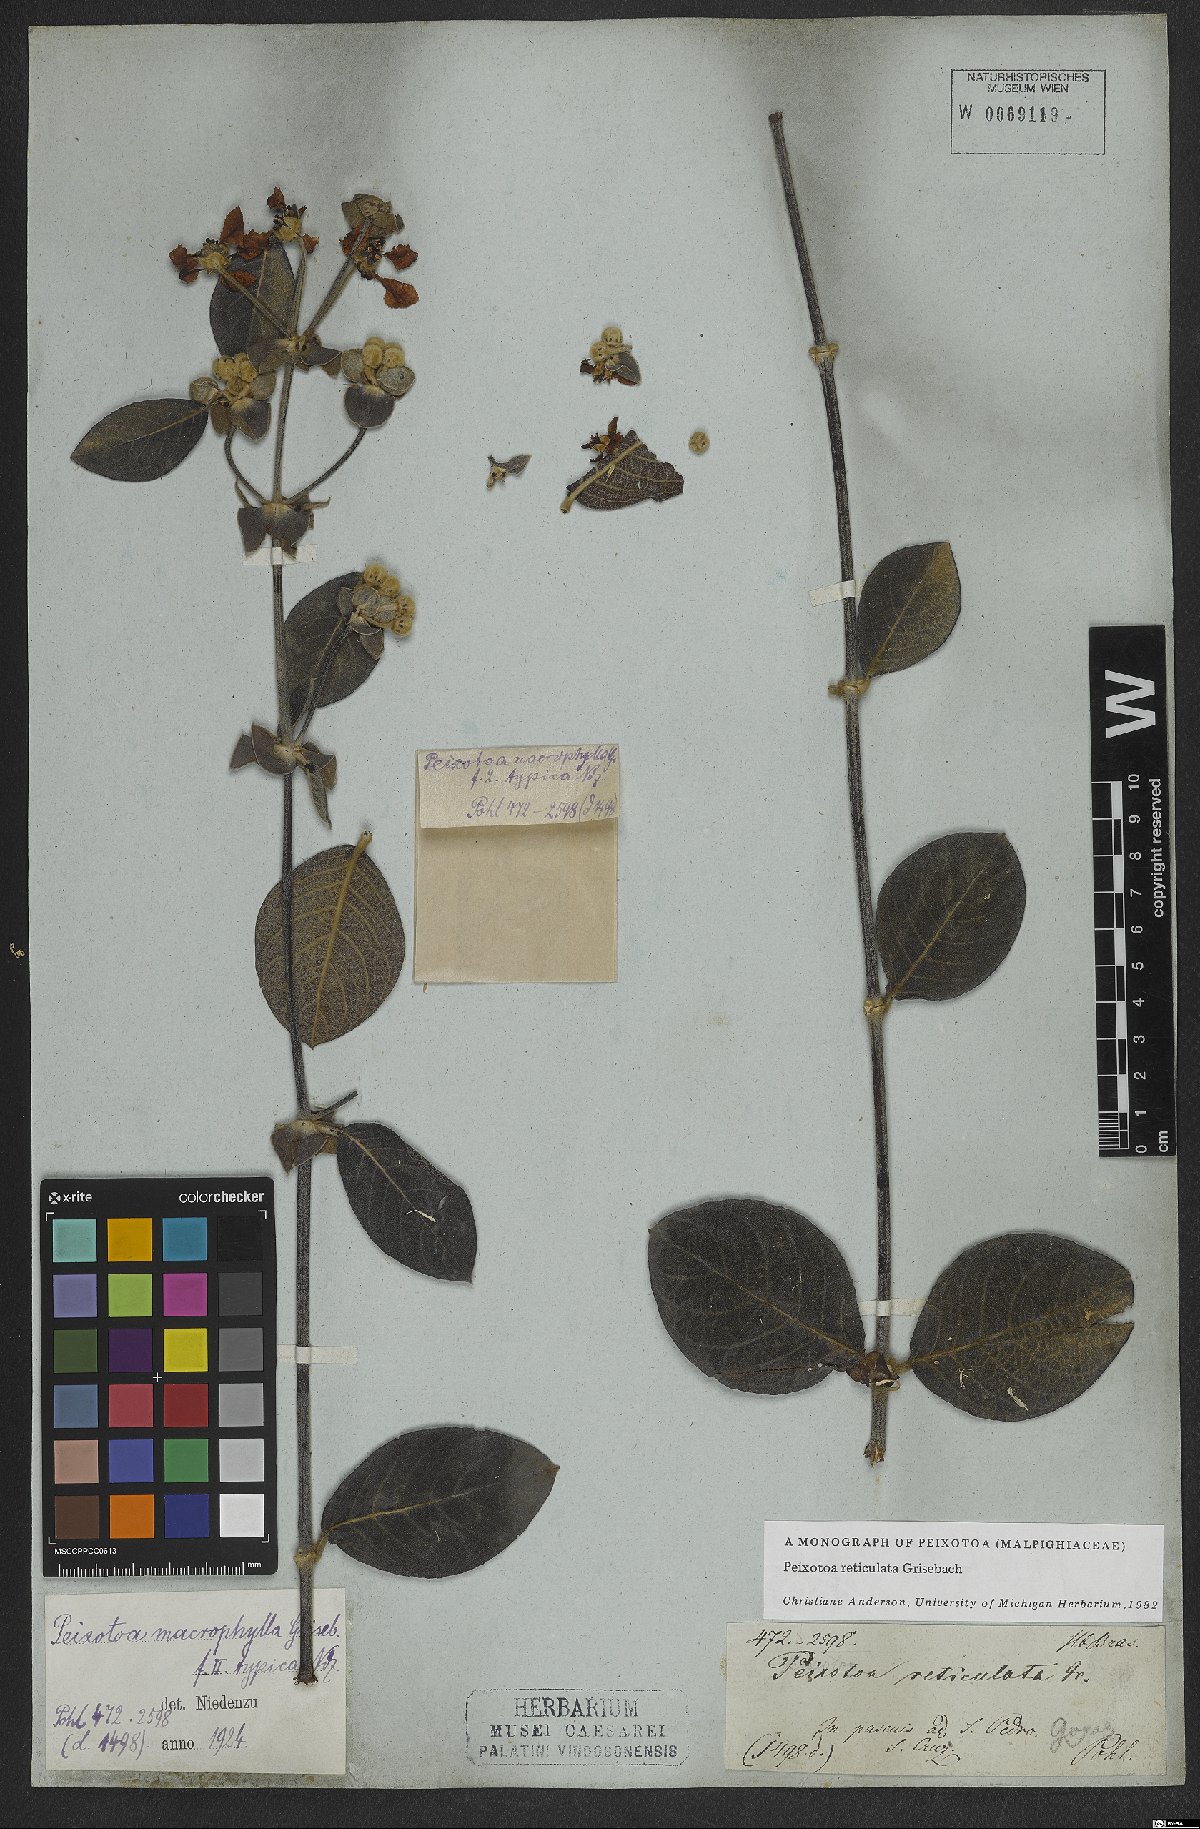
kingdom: Plantae
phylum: Tracheophyta
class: Magnoliopsida
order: Malpighiales
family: Malpighiaceae
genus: Peixotoa
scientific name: Peixotoa reticulata
